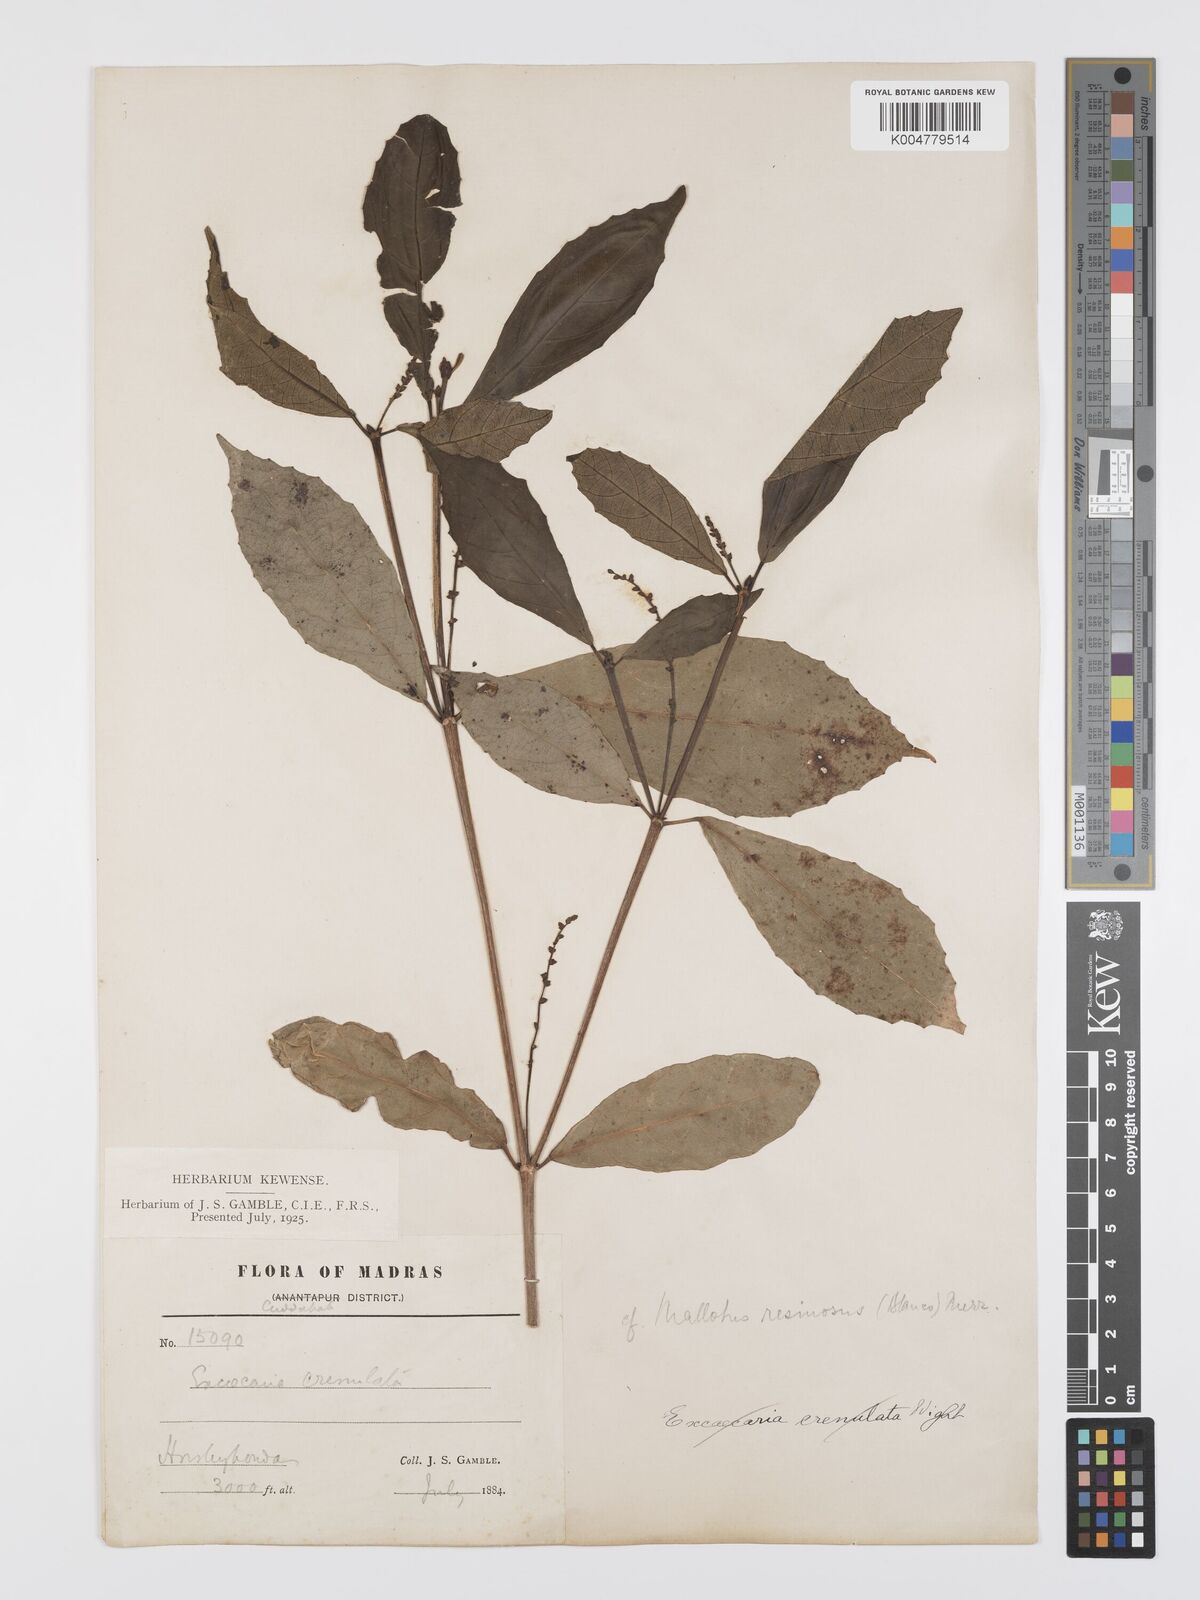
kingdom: Plantae
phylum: Tracheophyta
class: Magnoliopsida
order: Malpighiales
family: Euphorbiaceae
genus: Mallotus
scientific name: Mallotus resinosus
